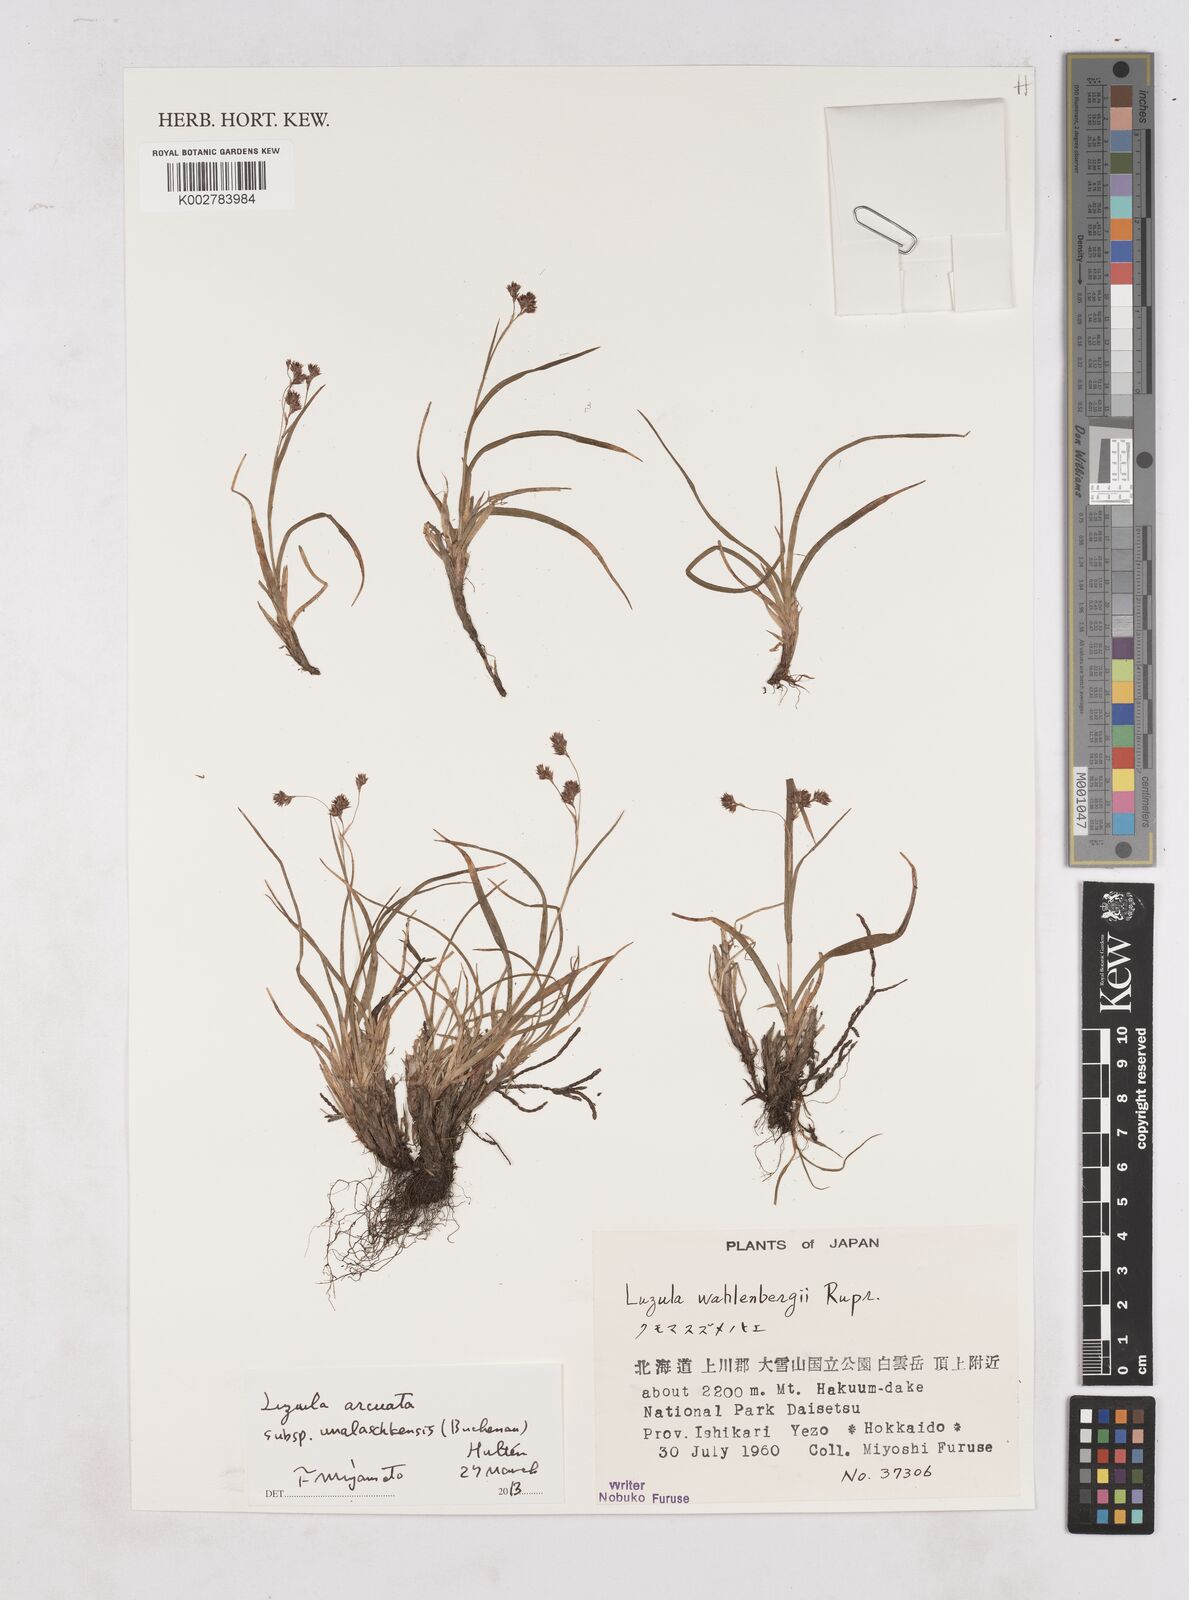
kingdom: Plantae
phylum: Tracheophyta
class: Liliopsida
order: Poales
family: Juncaceae
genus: Luzula
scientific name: Luzula arcuata
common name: Curved wood-rush
